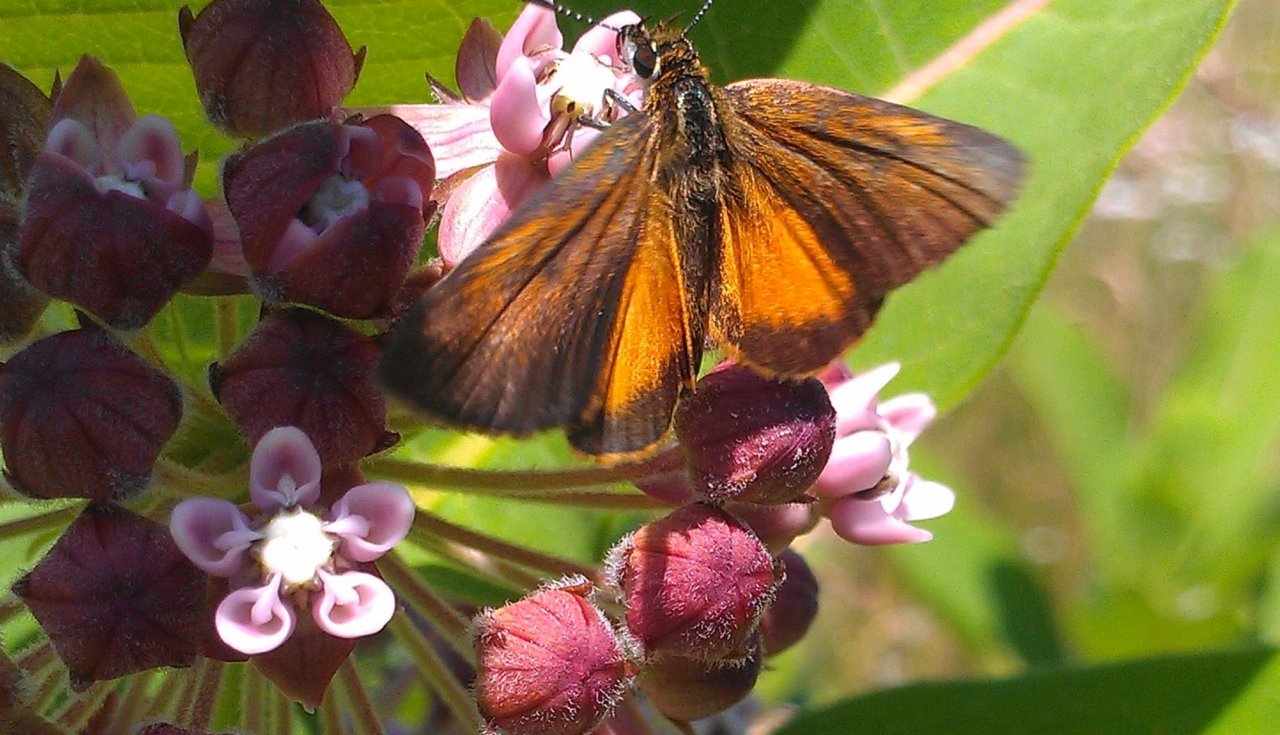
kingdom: Animalia
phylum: Arthropoda
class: Insecta
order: Lepidoptera
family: Hesperiidae
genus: Ancyloxypha
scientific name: Ancyloxypha numitor
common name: Least Skipper
